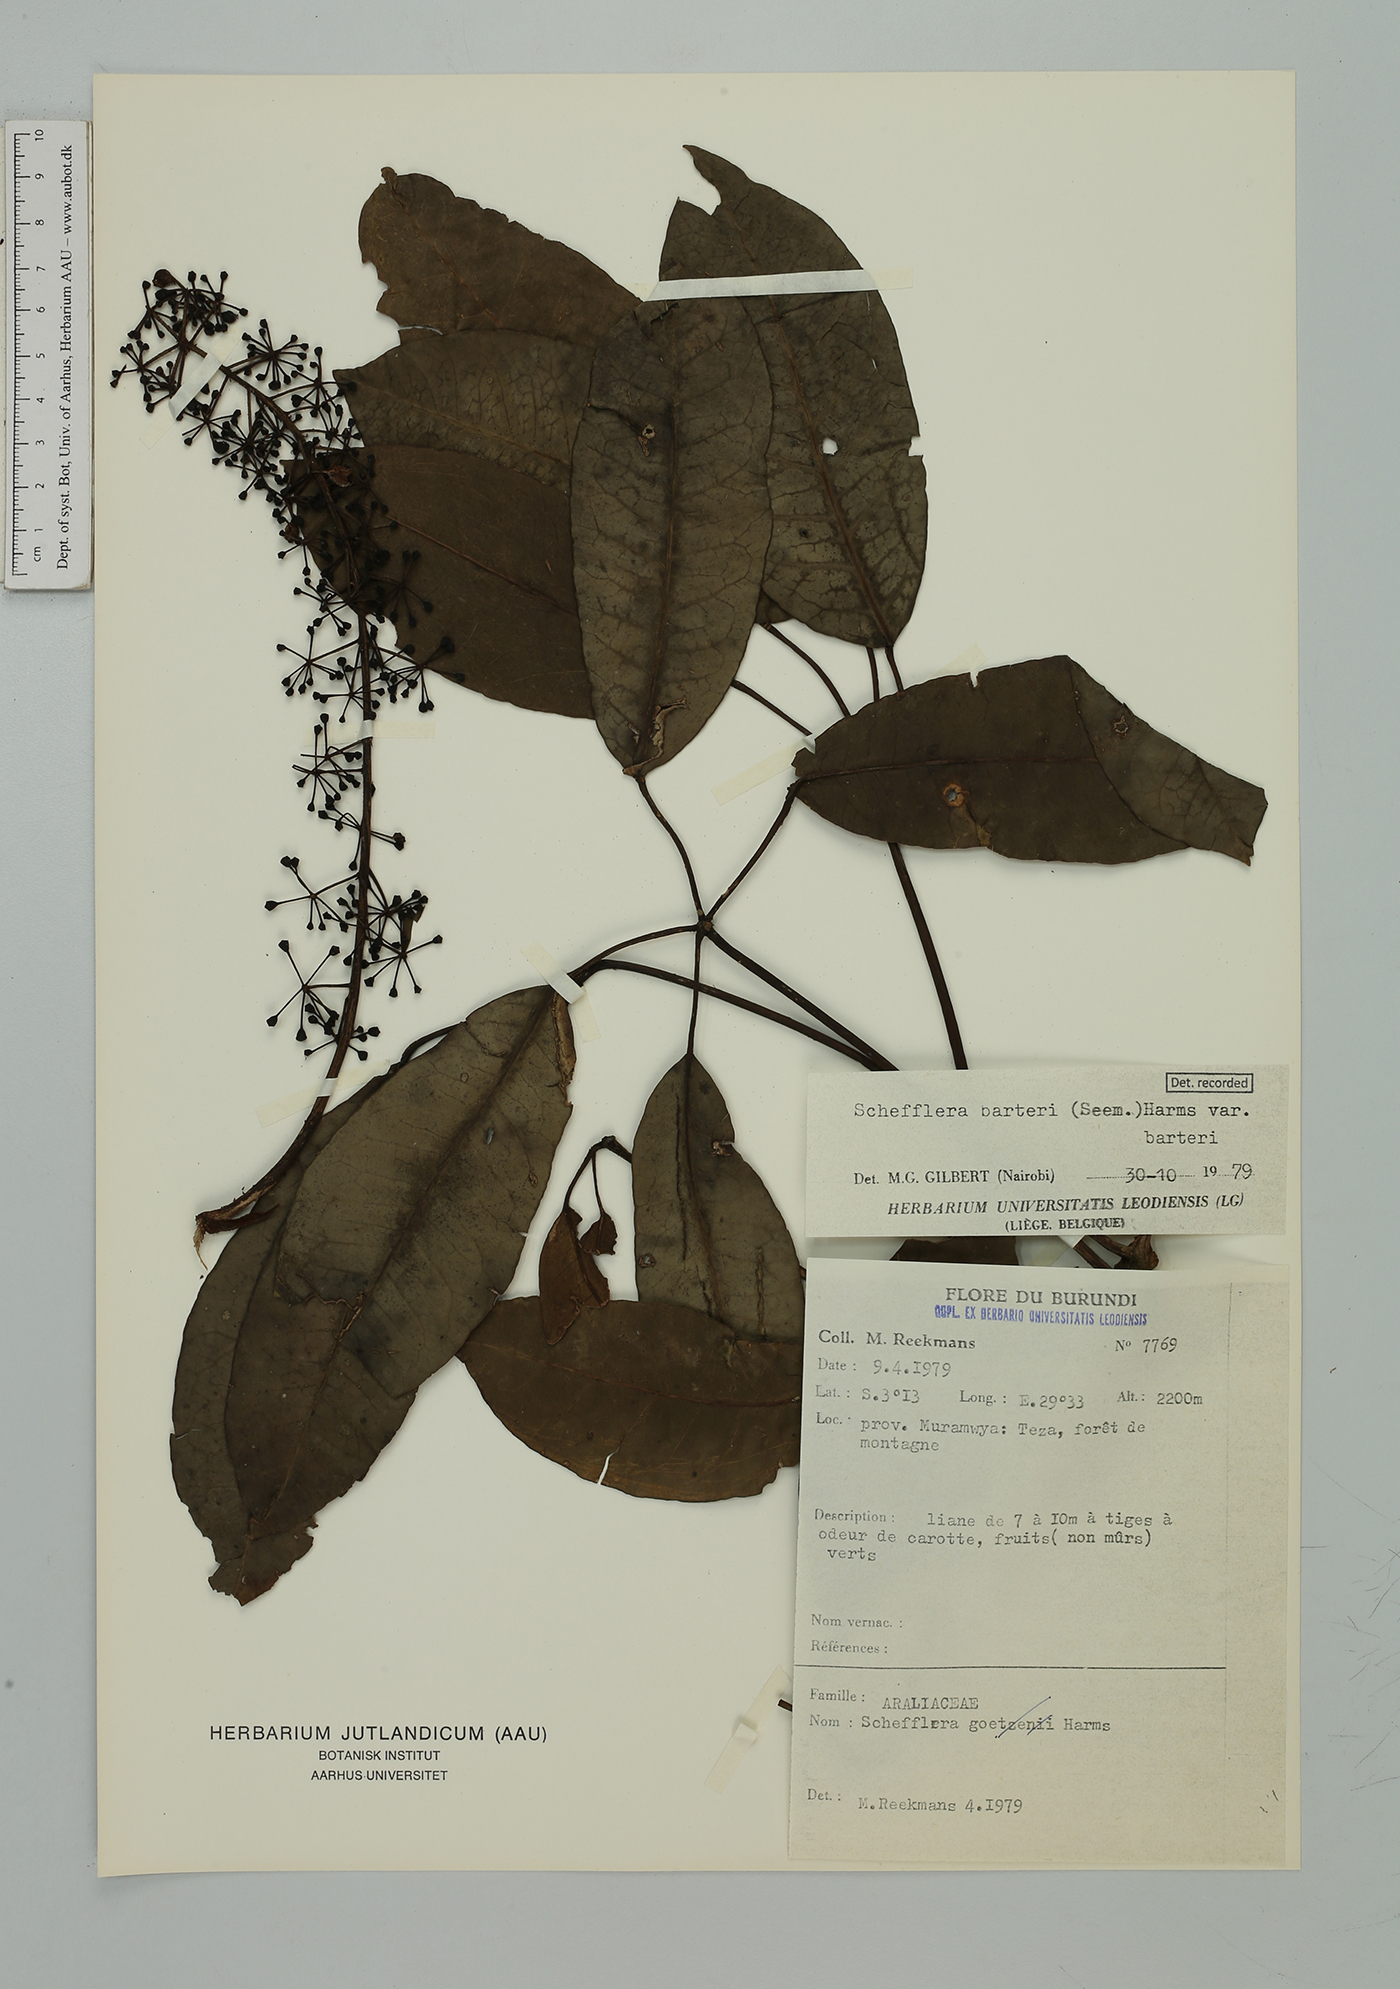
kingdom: Plantae
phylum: Tracheophyta
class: Magnoliopsida
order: Apiales
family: Araliaceae
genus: Astropanax
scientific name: Astropanax barteri
